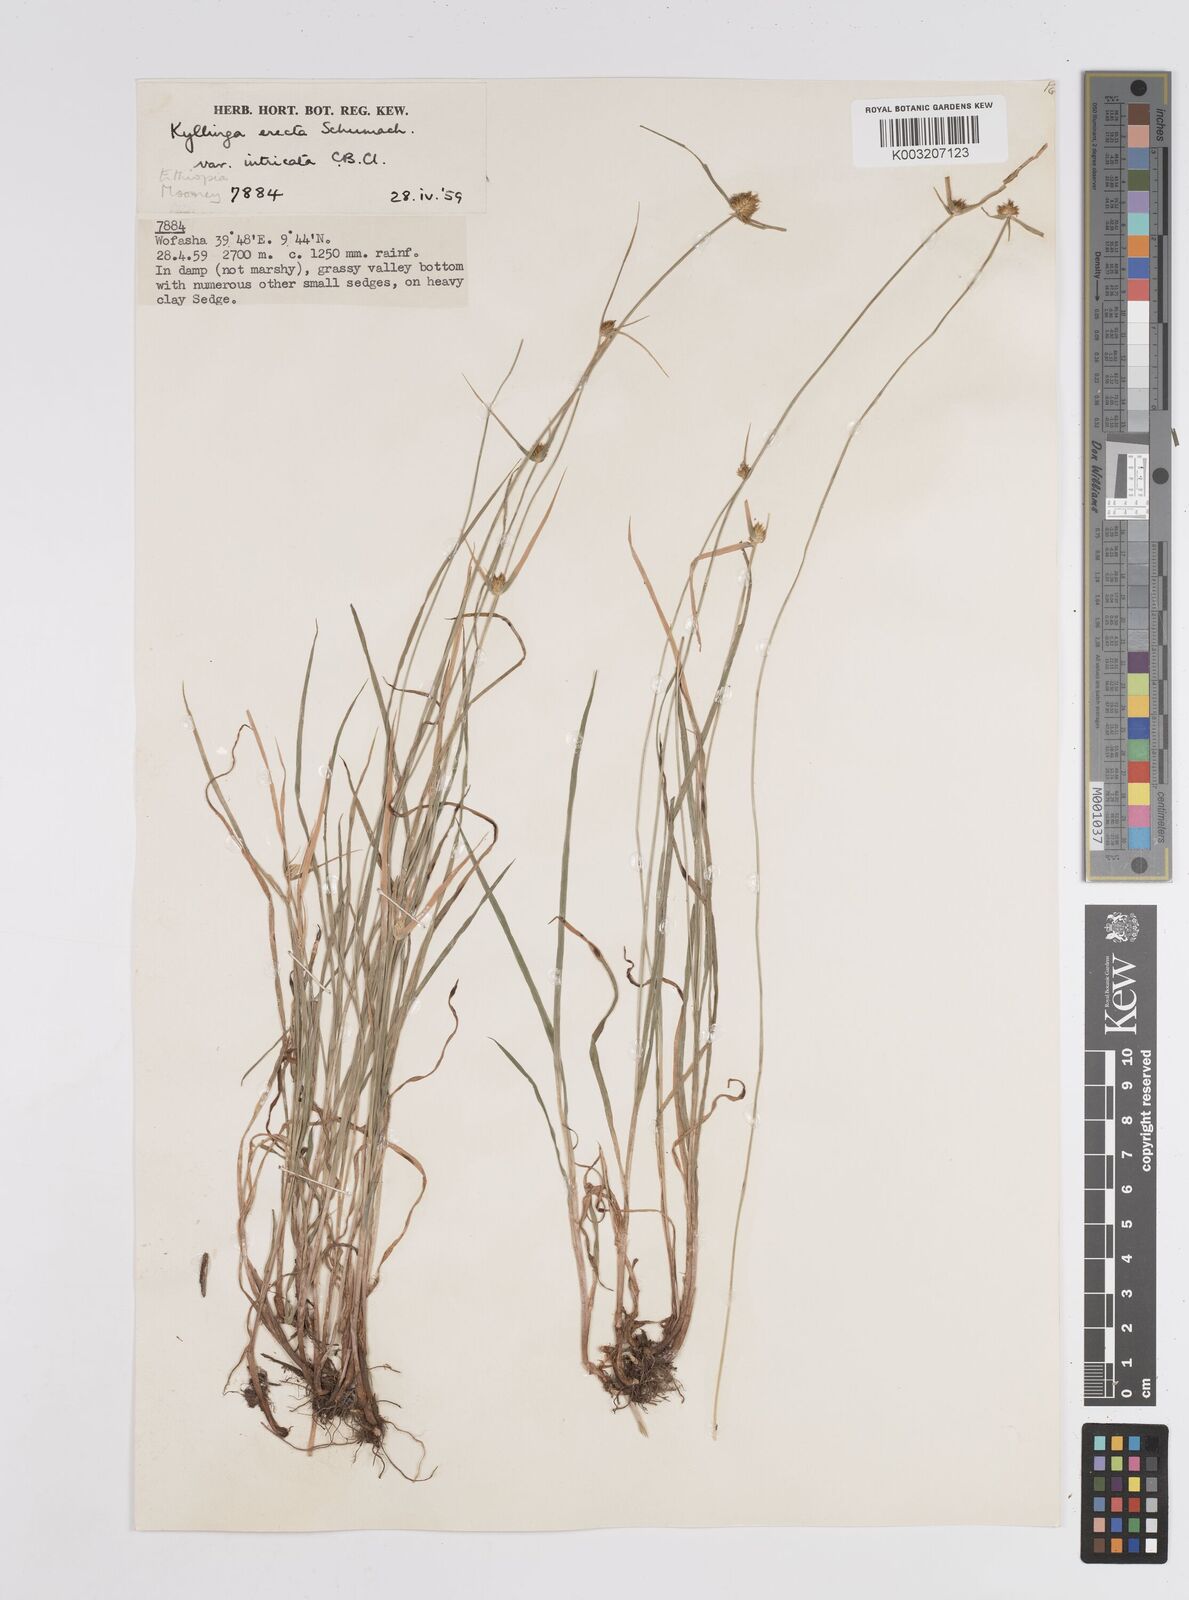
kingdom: Plantae
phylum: Tracheophyta
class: Liliopsida
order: Poales
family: Cyperaceae
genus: Cyperus
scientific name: Cyperus
